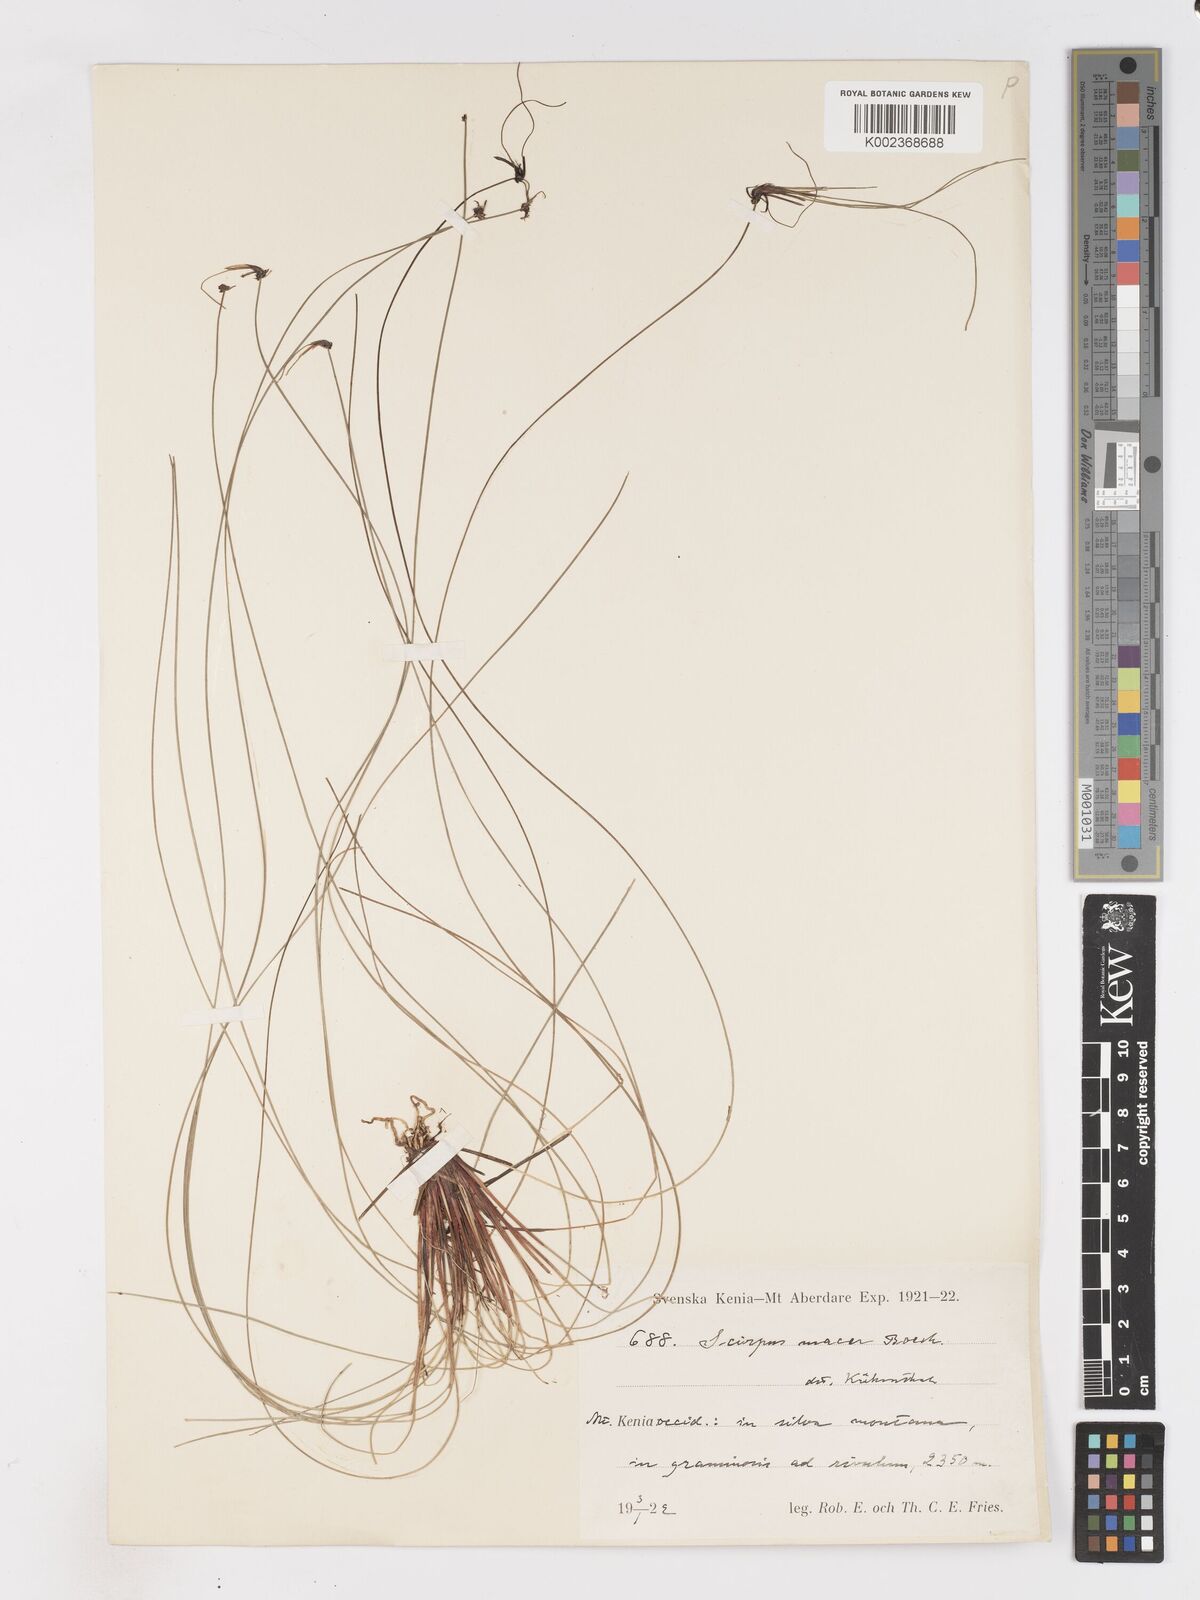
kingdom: Plantae
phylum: Tracheophyta
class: Liliopsida
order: Poales
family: Cyperaceae
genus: Isolepis
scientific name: Isolepis costata
